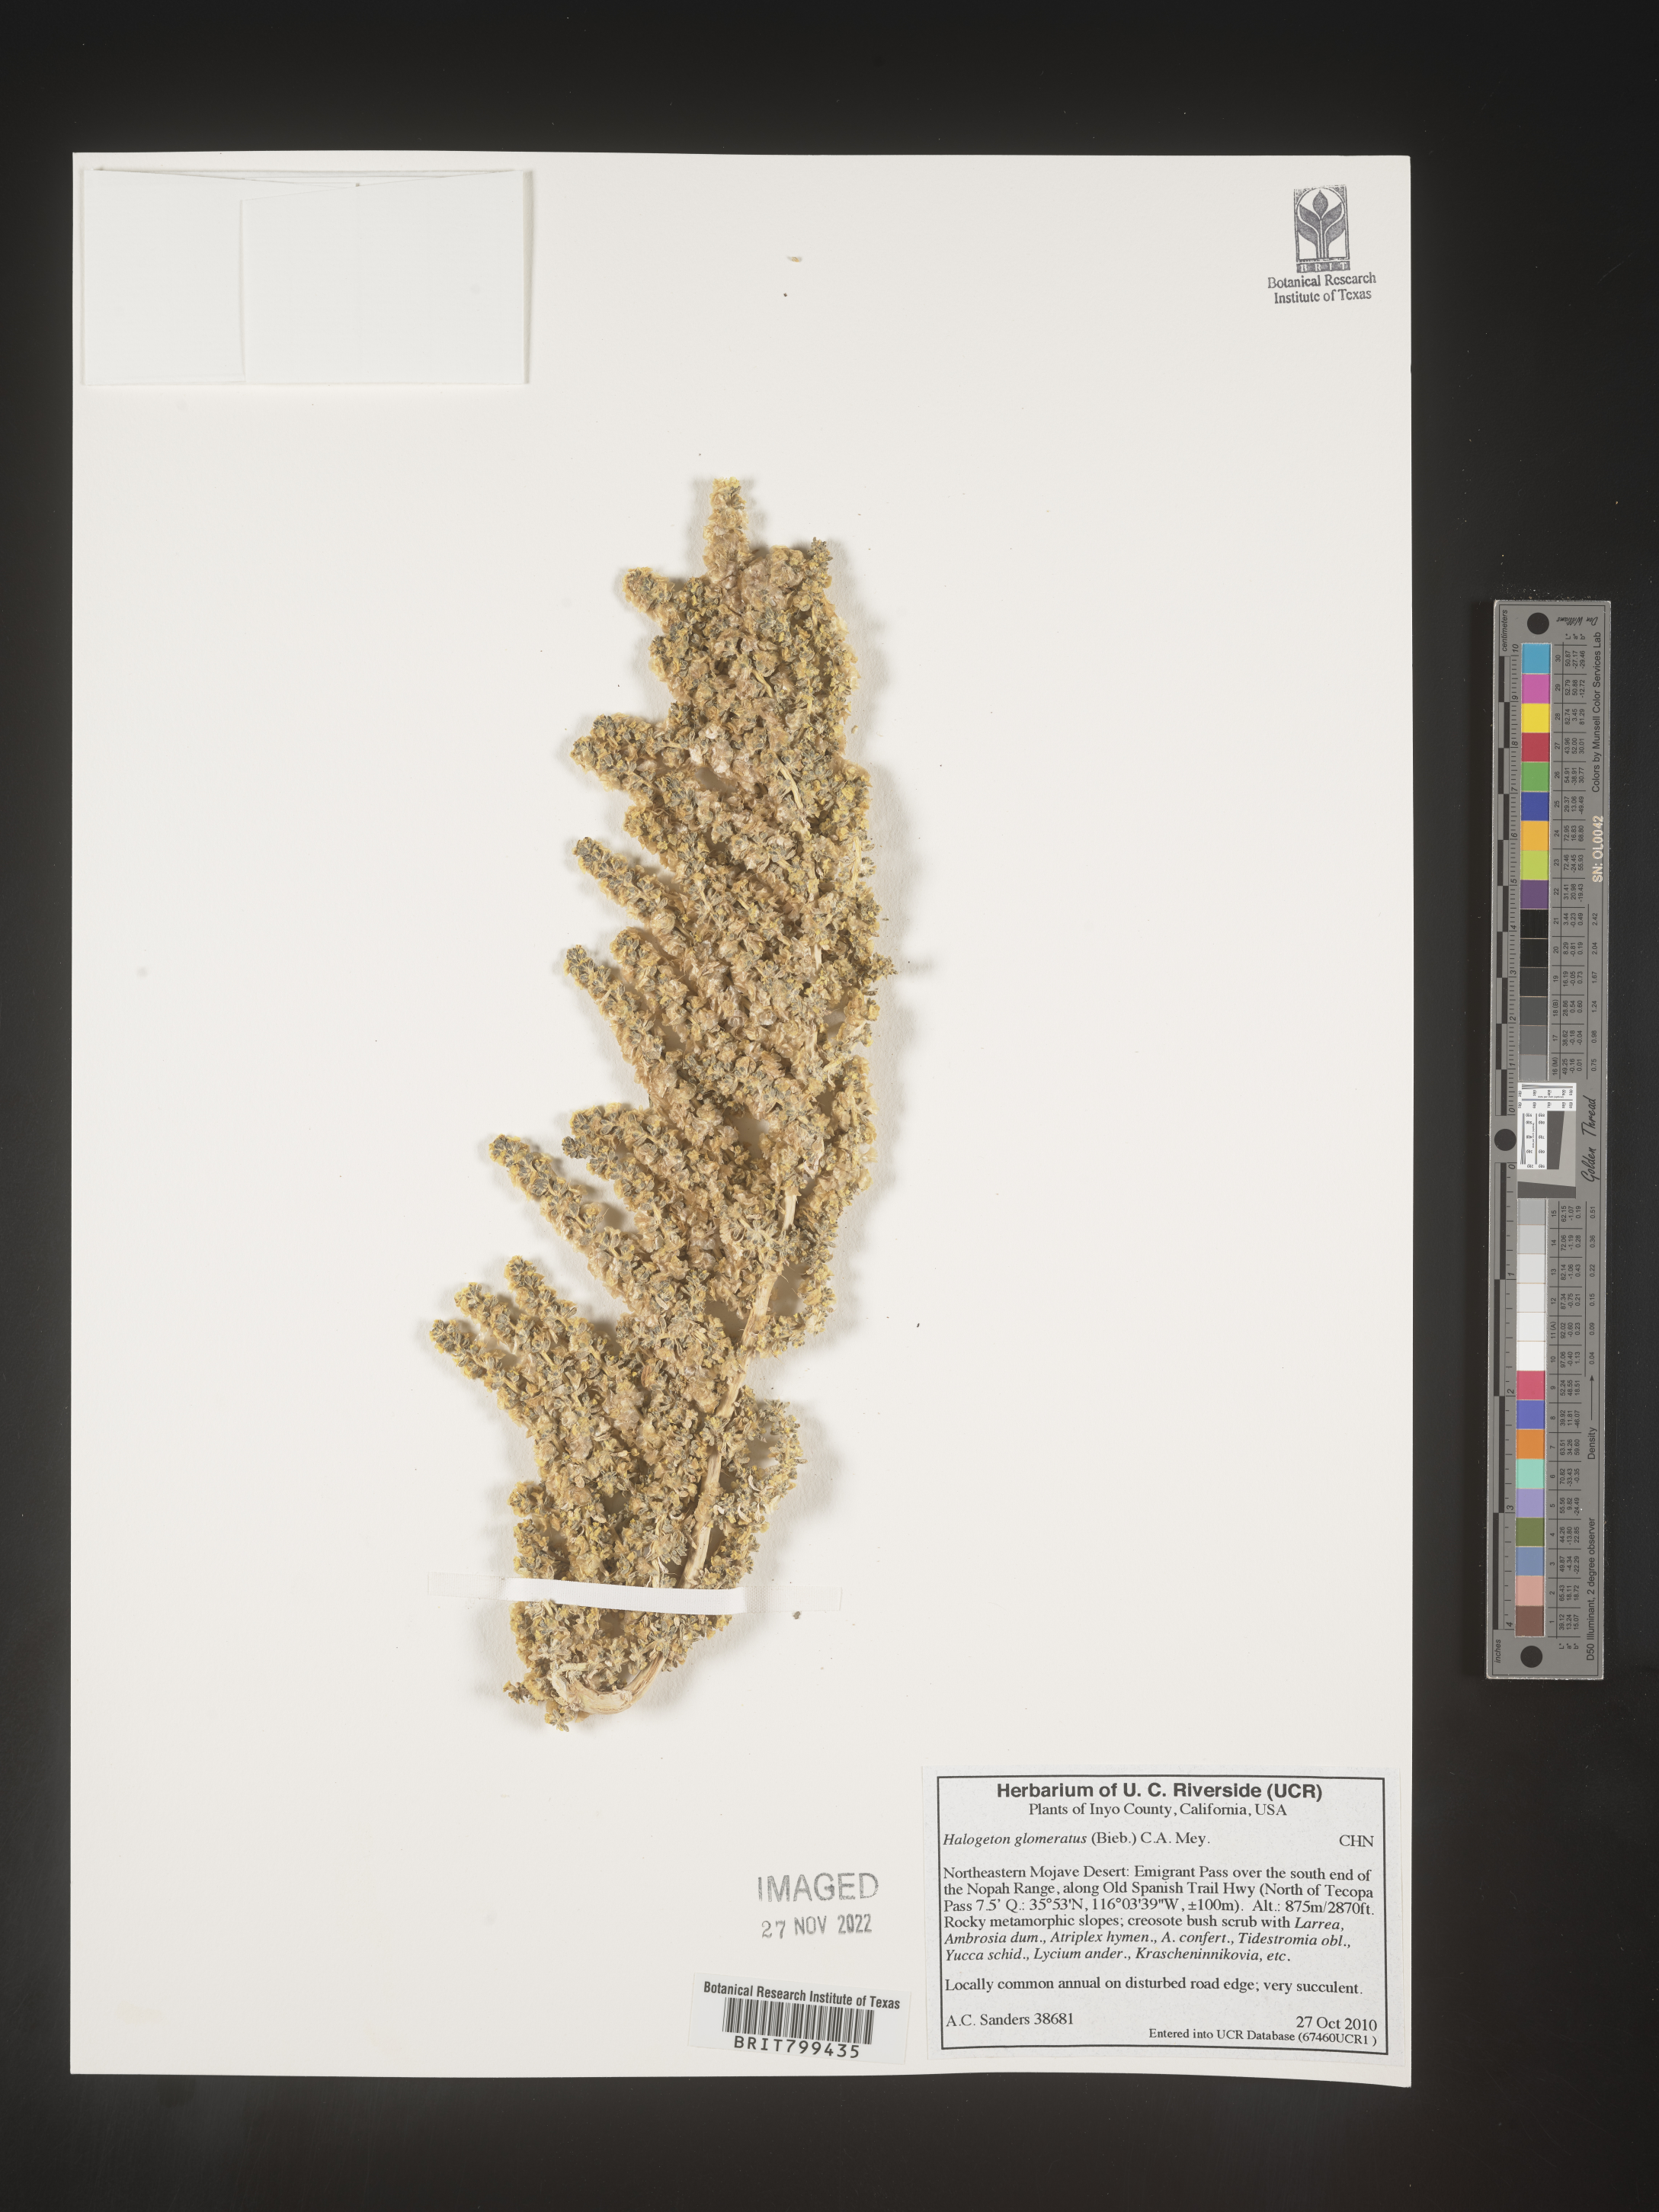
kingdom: Plantae
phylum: Tracheophyta
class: Magnoliopsida
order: Caryophyllales
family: Amaranthaceae
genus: Halogeton
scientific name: Halogeton glomeratus
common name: Saltlover
